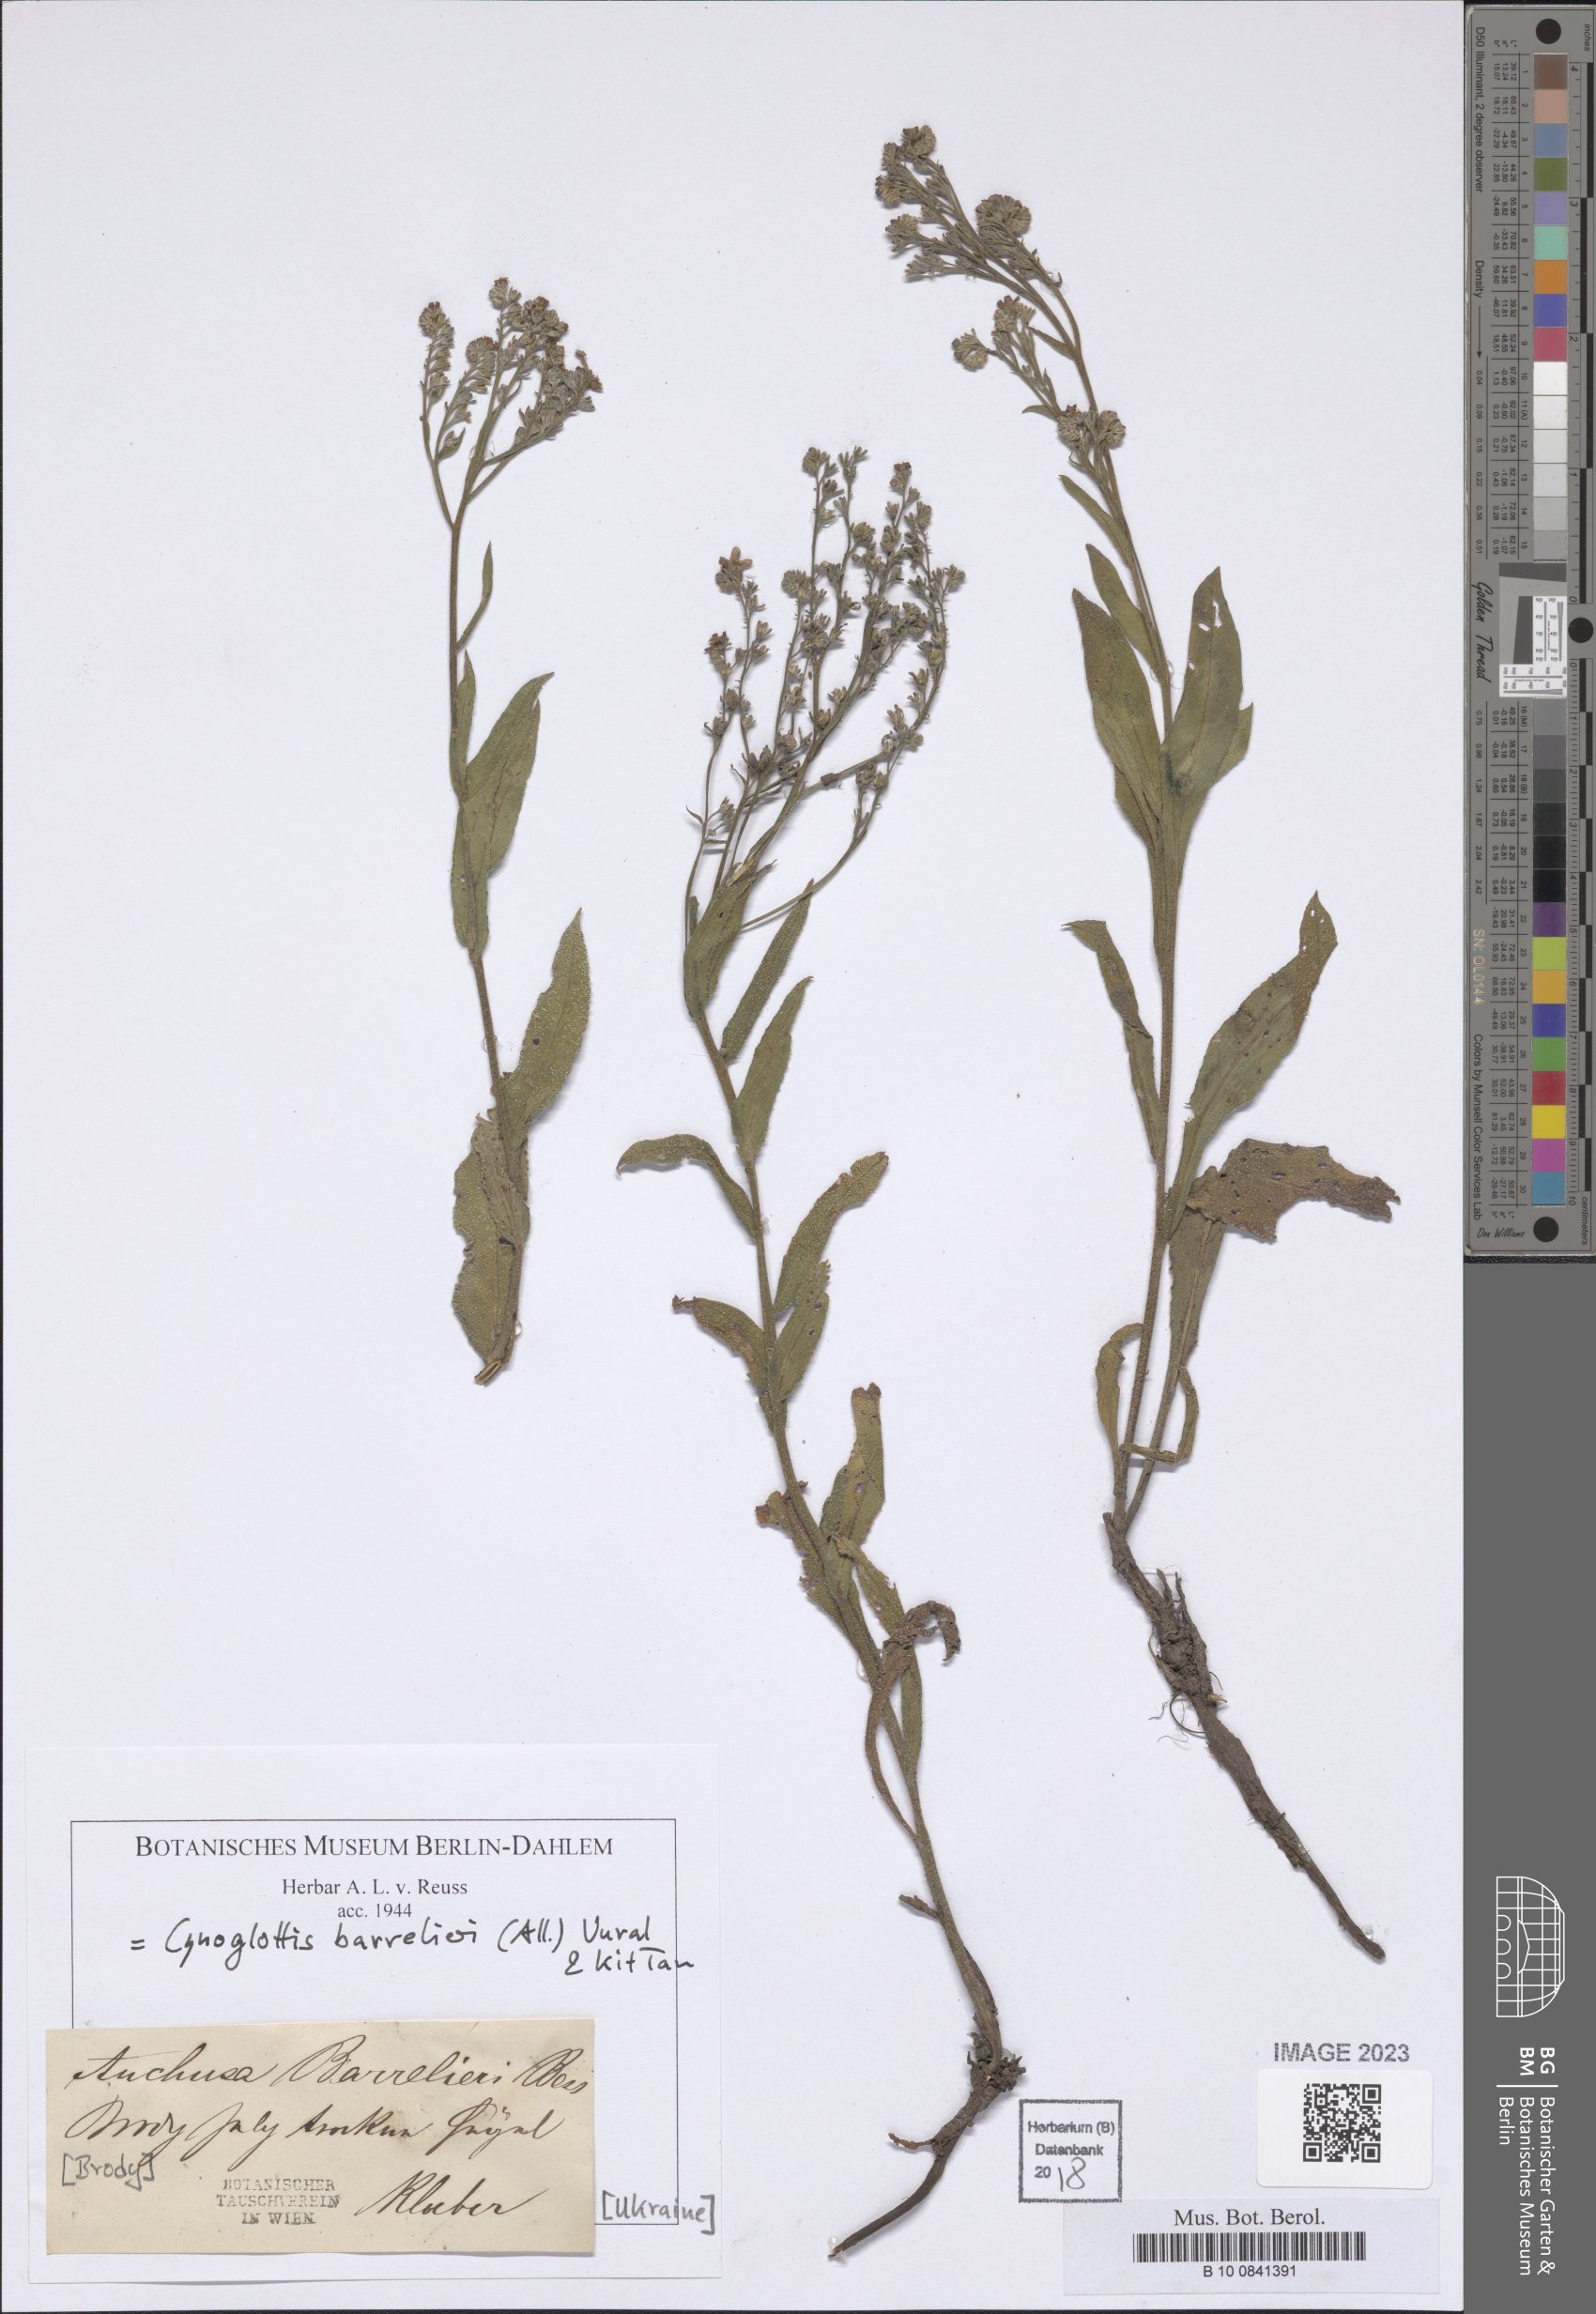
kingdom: Plantae
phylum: Tracheophyta
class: Magnoliopsida
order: Boraginales
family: Boraginaceae
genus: Cynoglottis
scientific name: Cynoglottis barrelieri
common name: False alkanet
